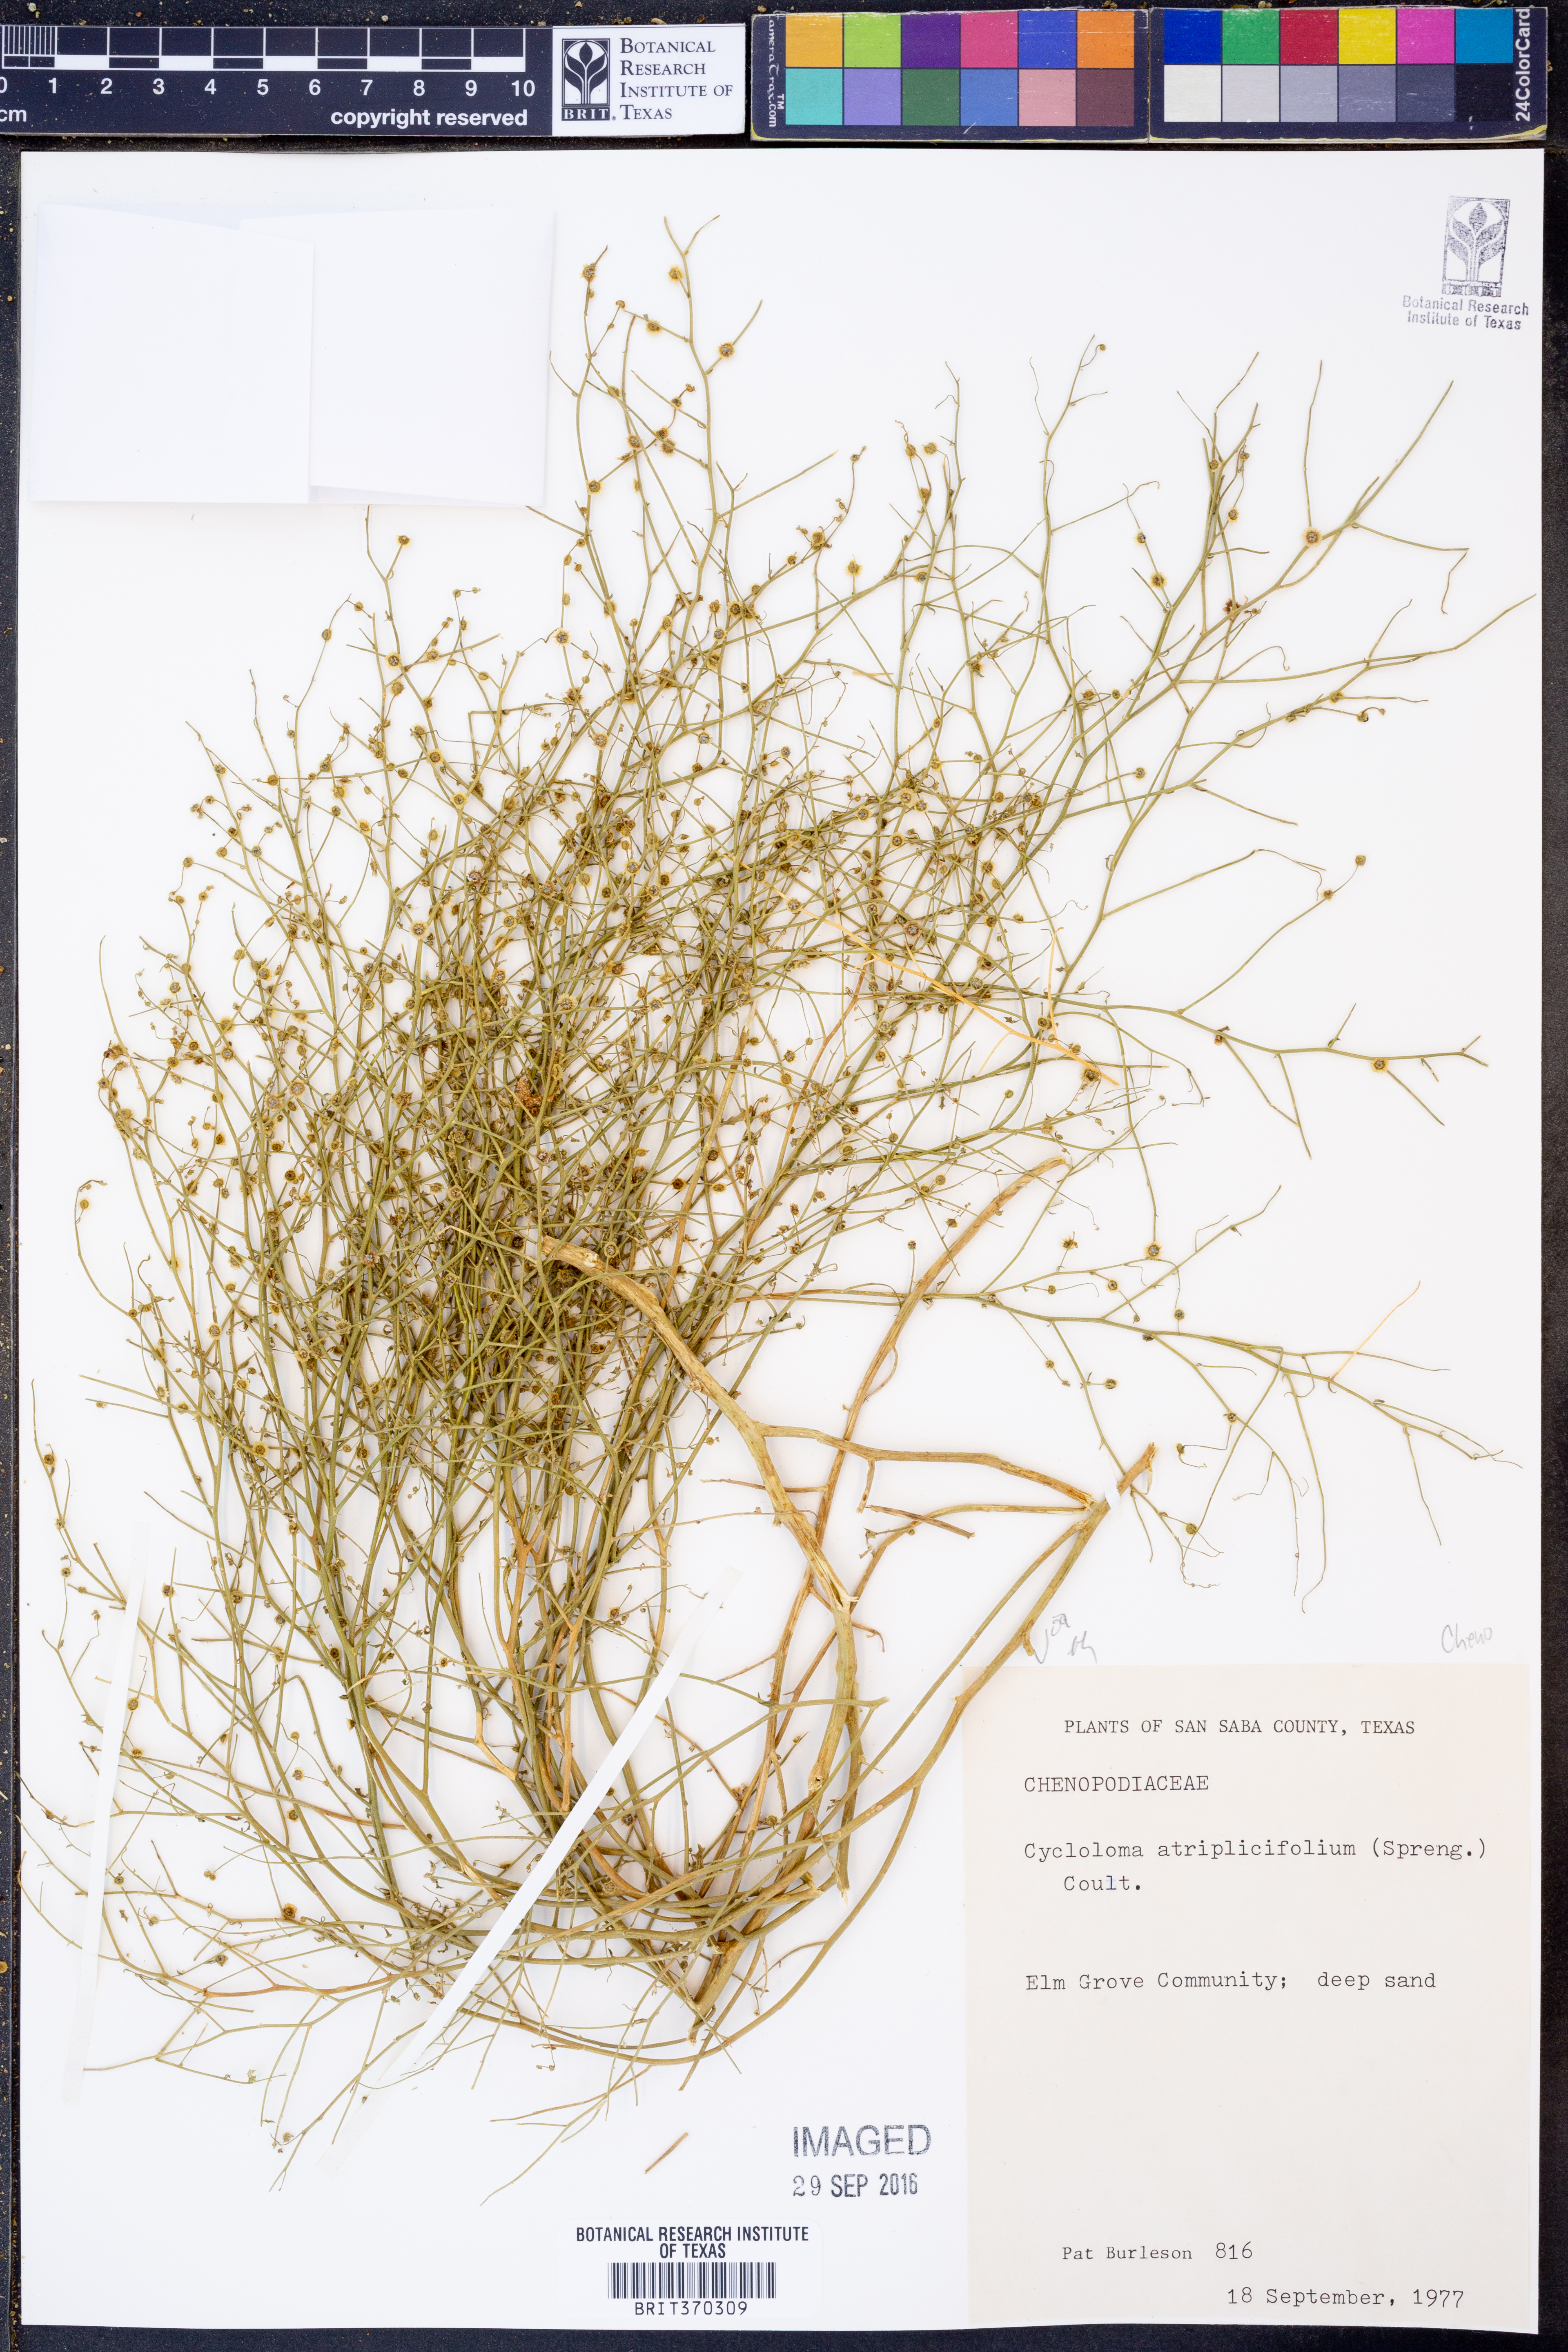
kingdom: Plantae
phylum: Tracheophyta
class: Magnoliopsida
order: Caryophyllales
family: Amaranthaceae
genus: Dysphania
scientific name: Dysphania atriplicifolia
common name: Plains tumbleweed
